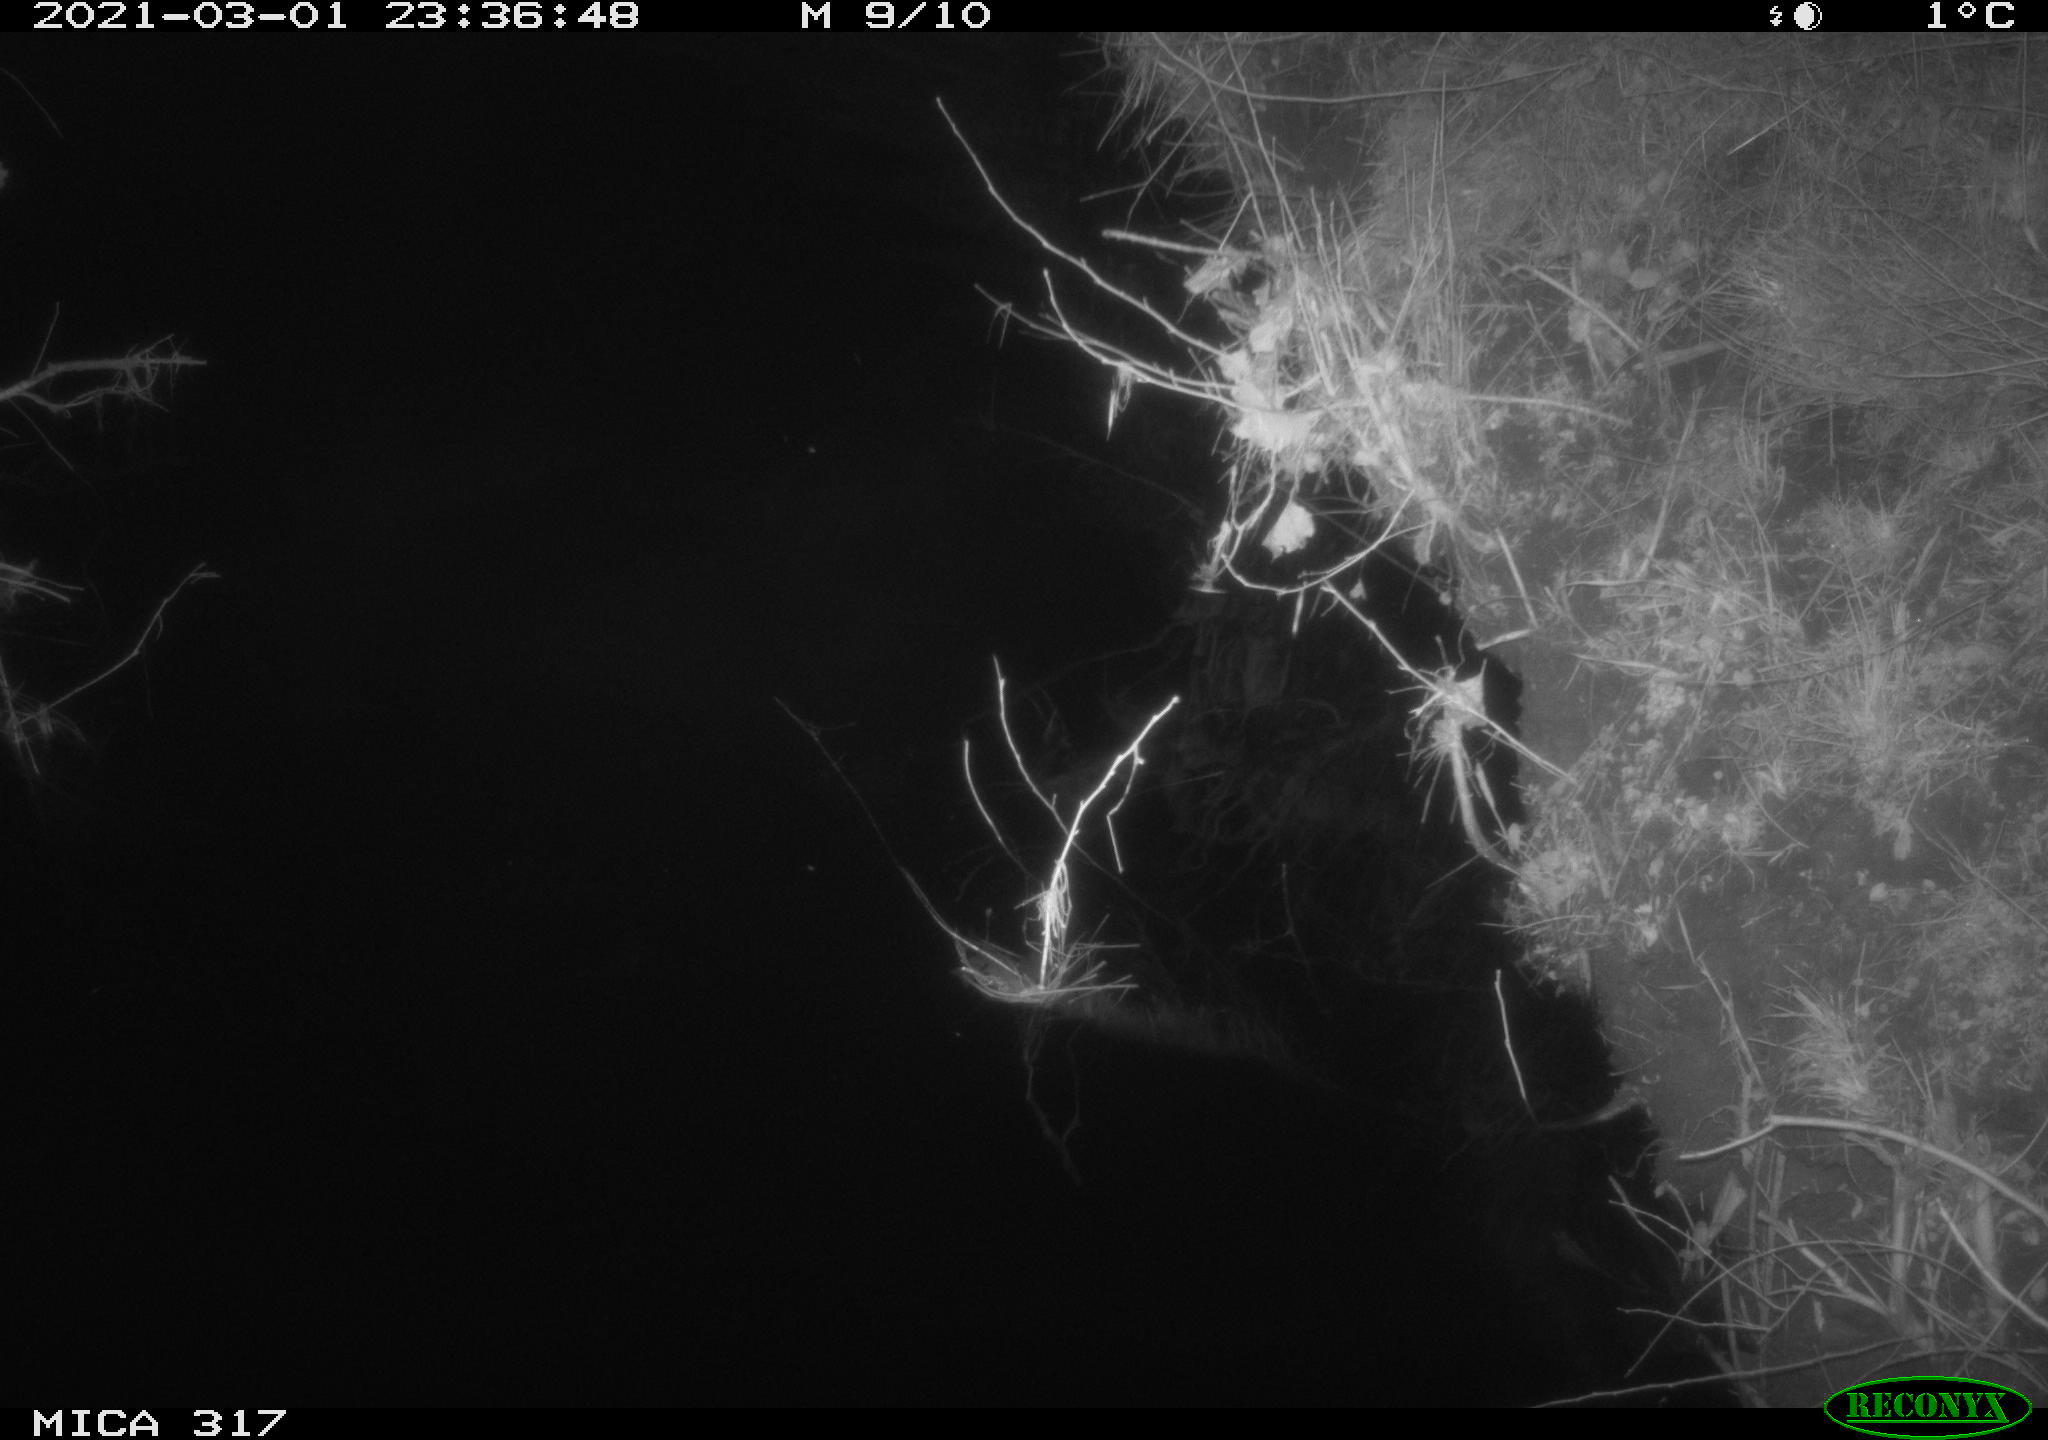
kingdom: Animalia
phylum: Chordata
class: Aves
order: Anseriformes
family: Anatidae
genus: Anas
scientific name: Anas platyrhynchos
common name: Mallard
